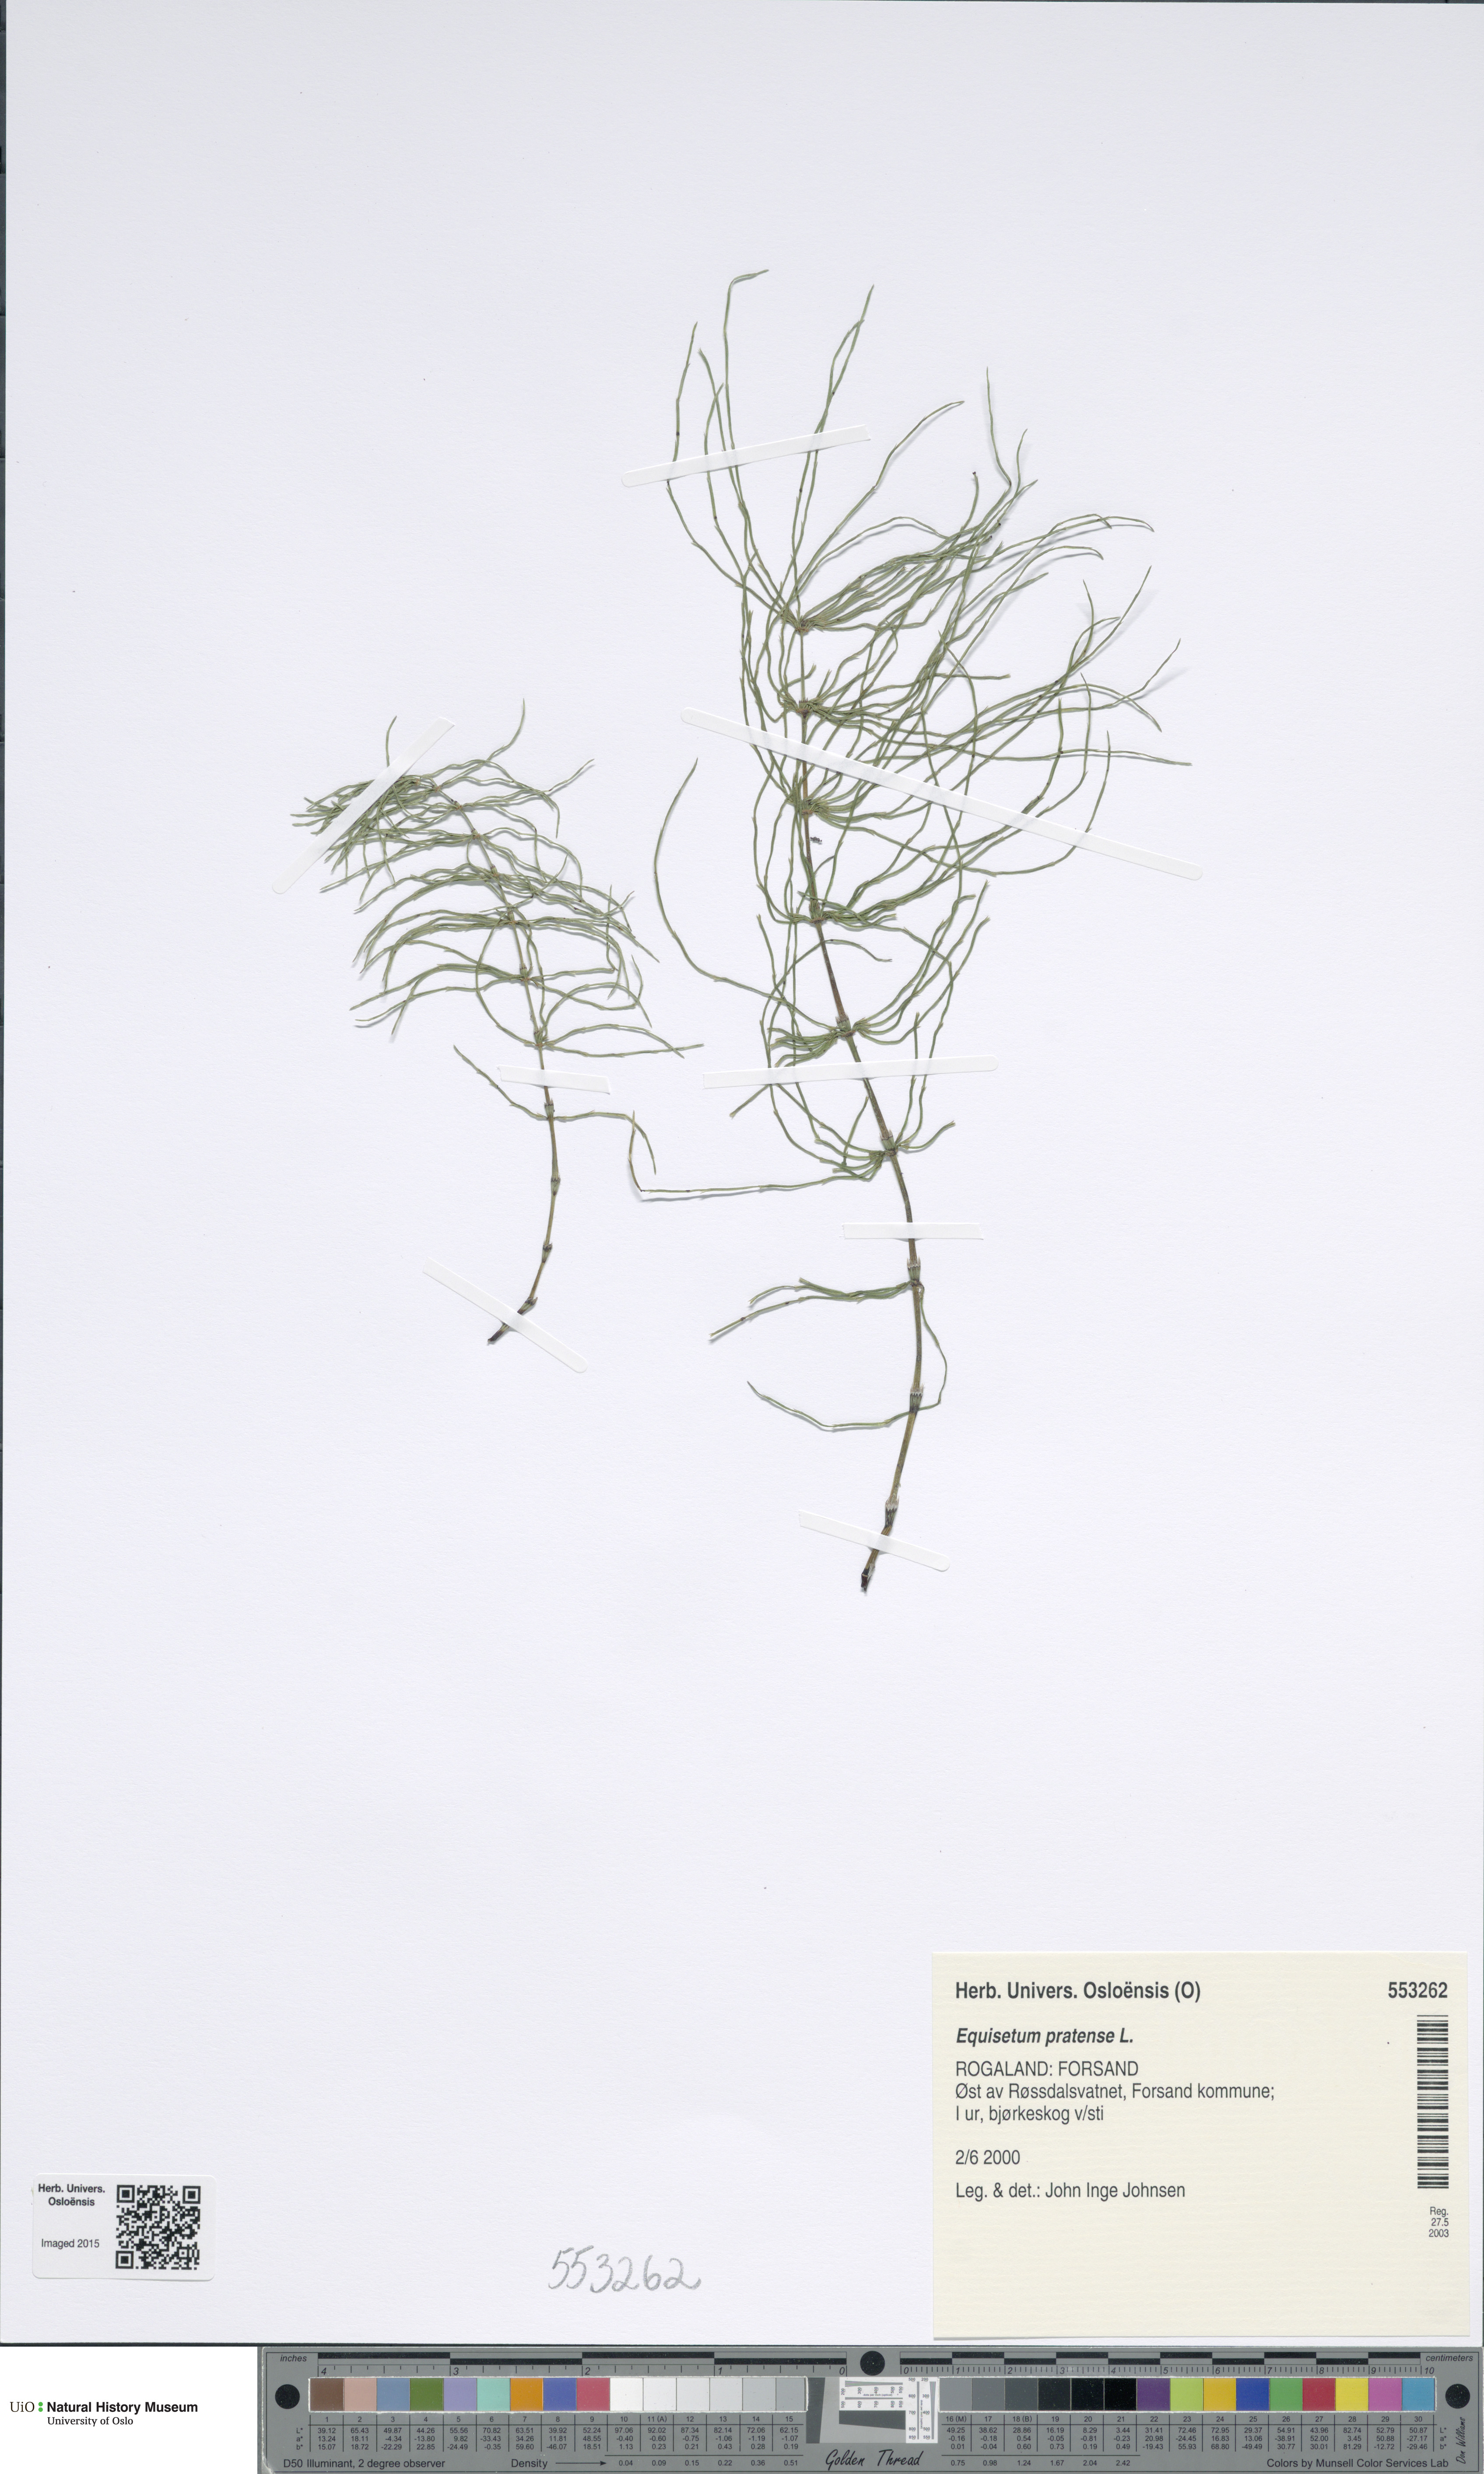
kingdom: Plantae
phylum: Tracheophyta
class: Polypodiopsida
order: Equisetales
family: Equisetaceae
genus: Equisetum
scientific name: Equisetum pratense
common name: Meadow horsetail
